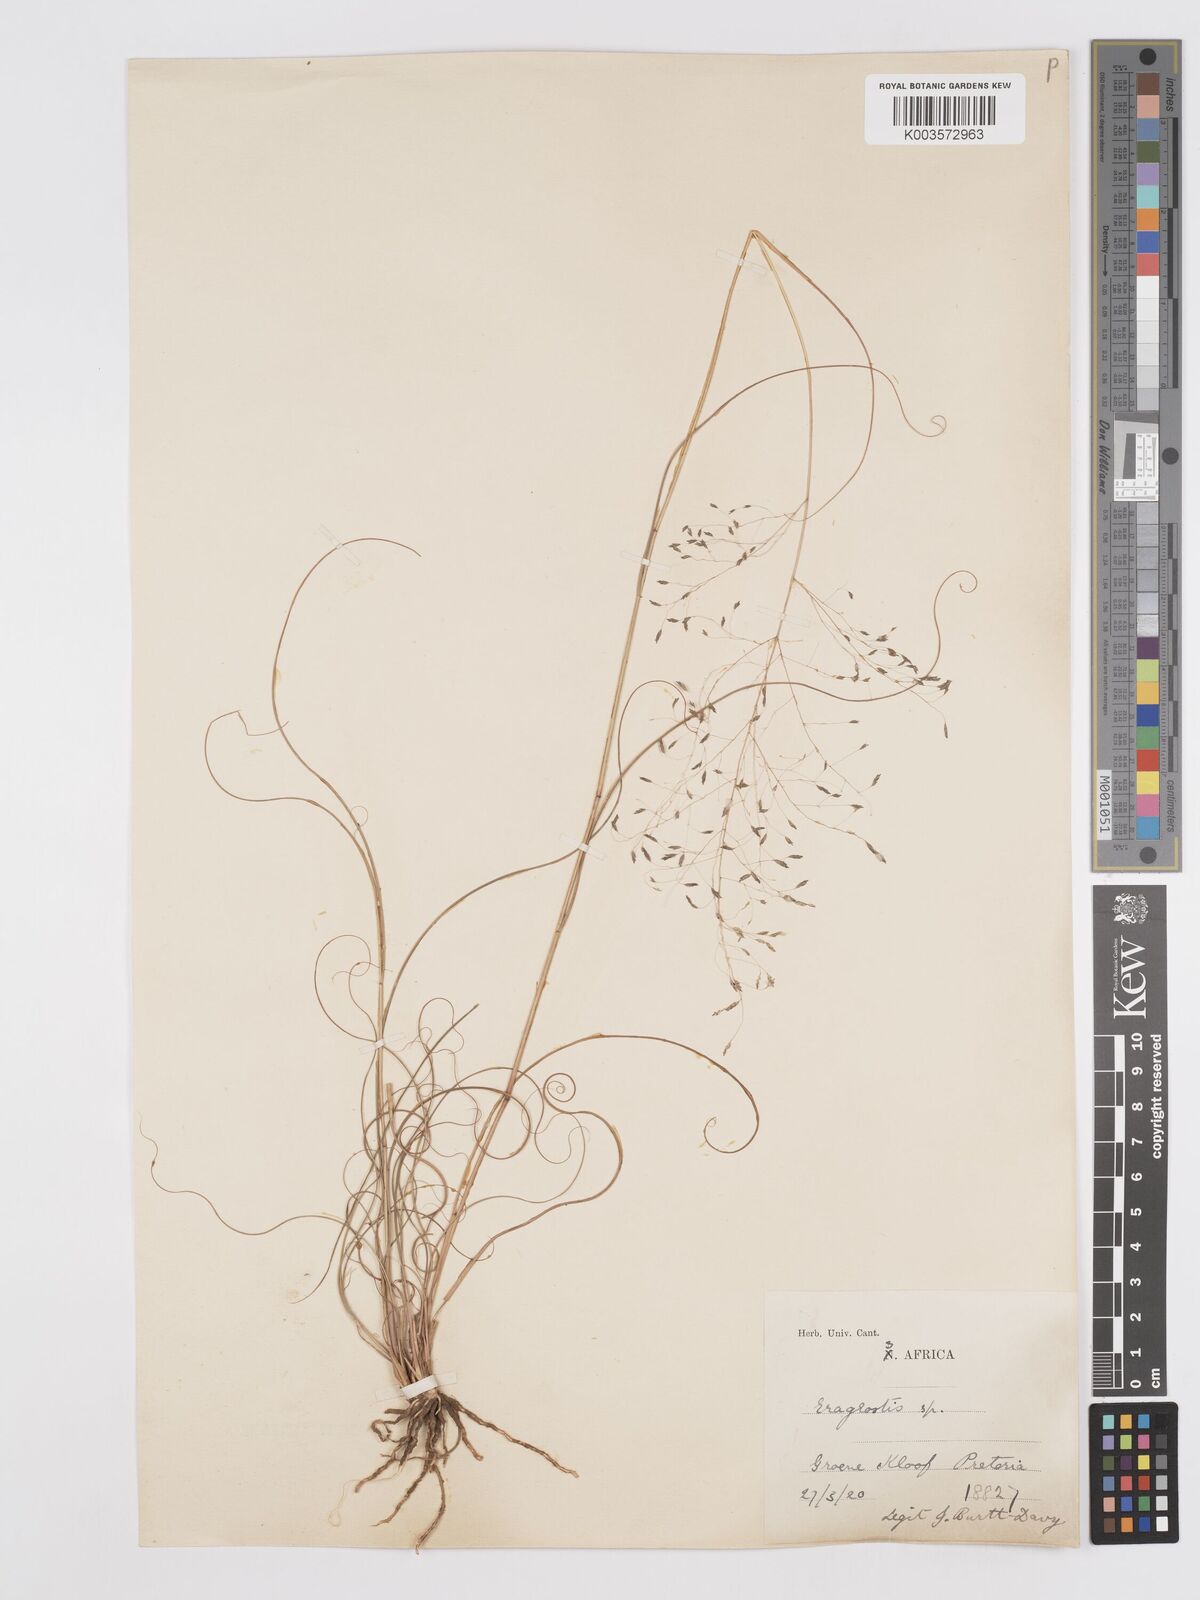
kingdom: Plantae
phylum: Tracheophyta
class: Liliopsida
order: Poales
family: Poaceae
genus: Eragrostis
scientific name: Eragrostis curvula
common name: African love-grass
